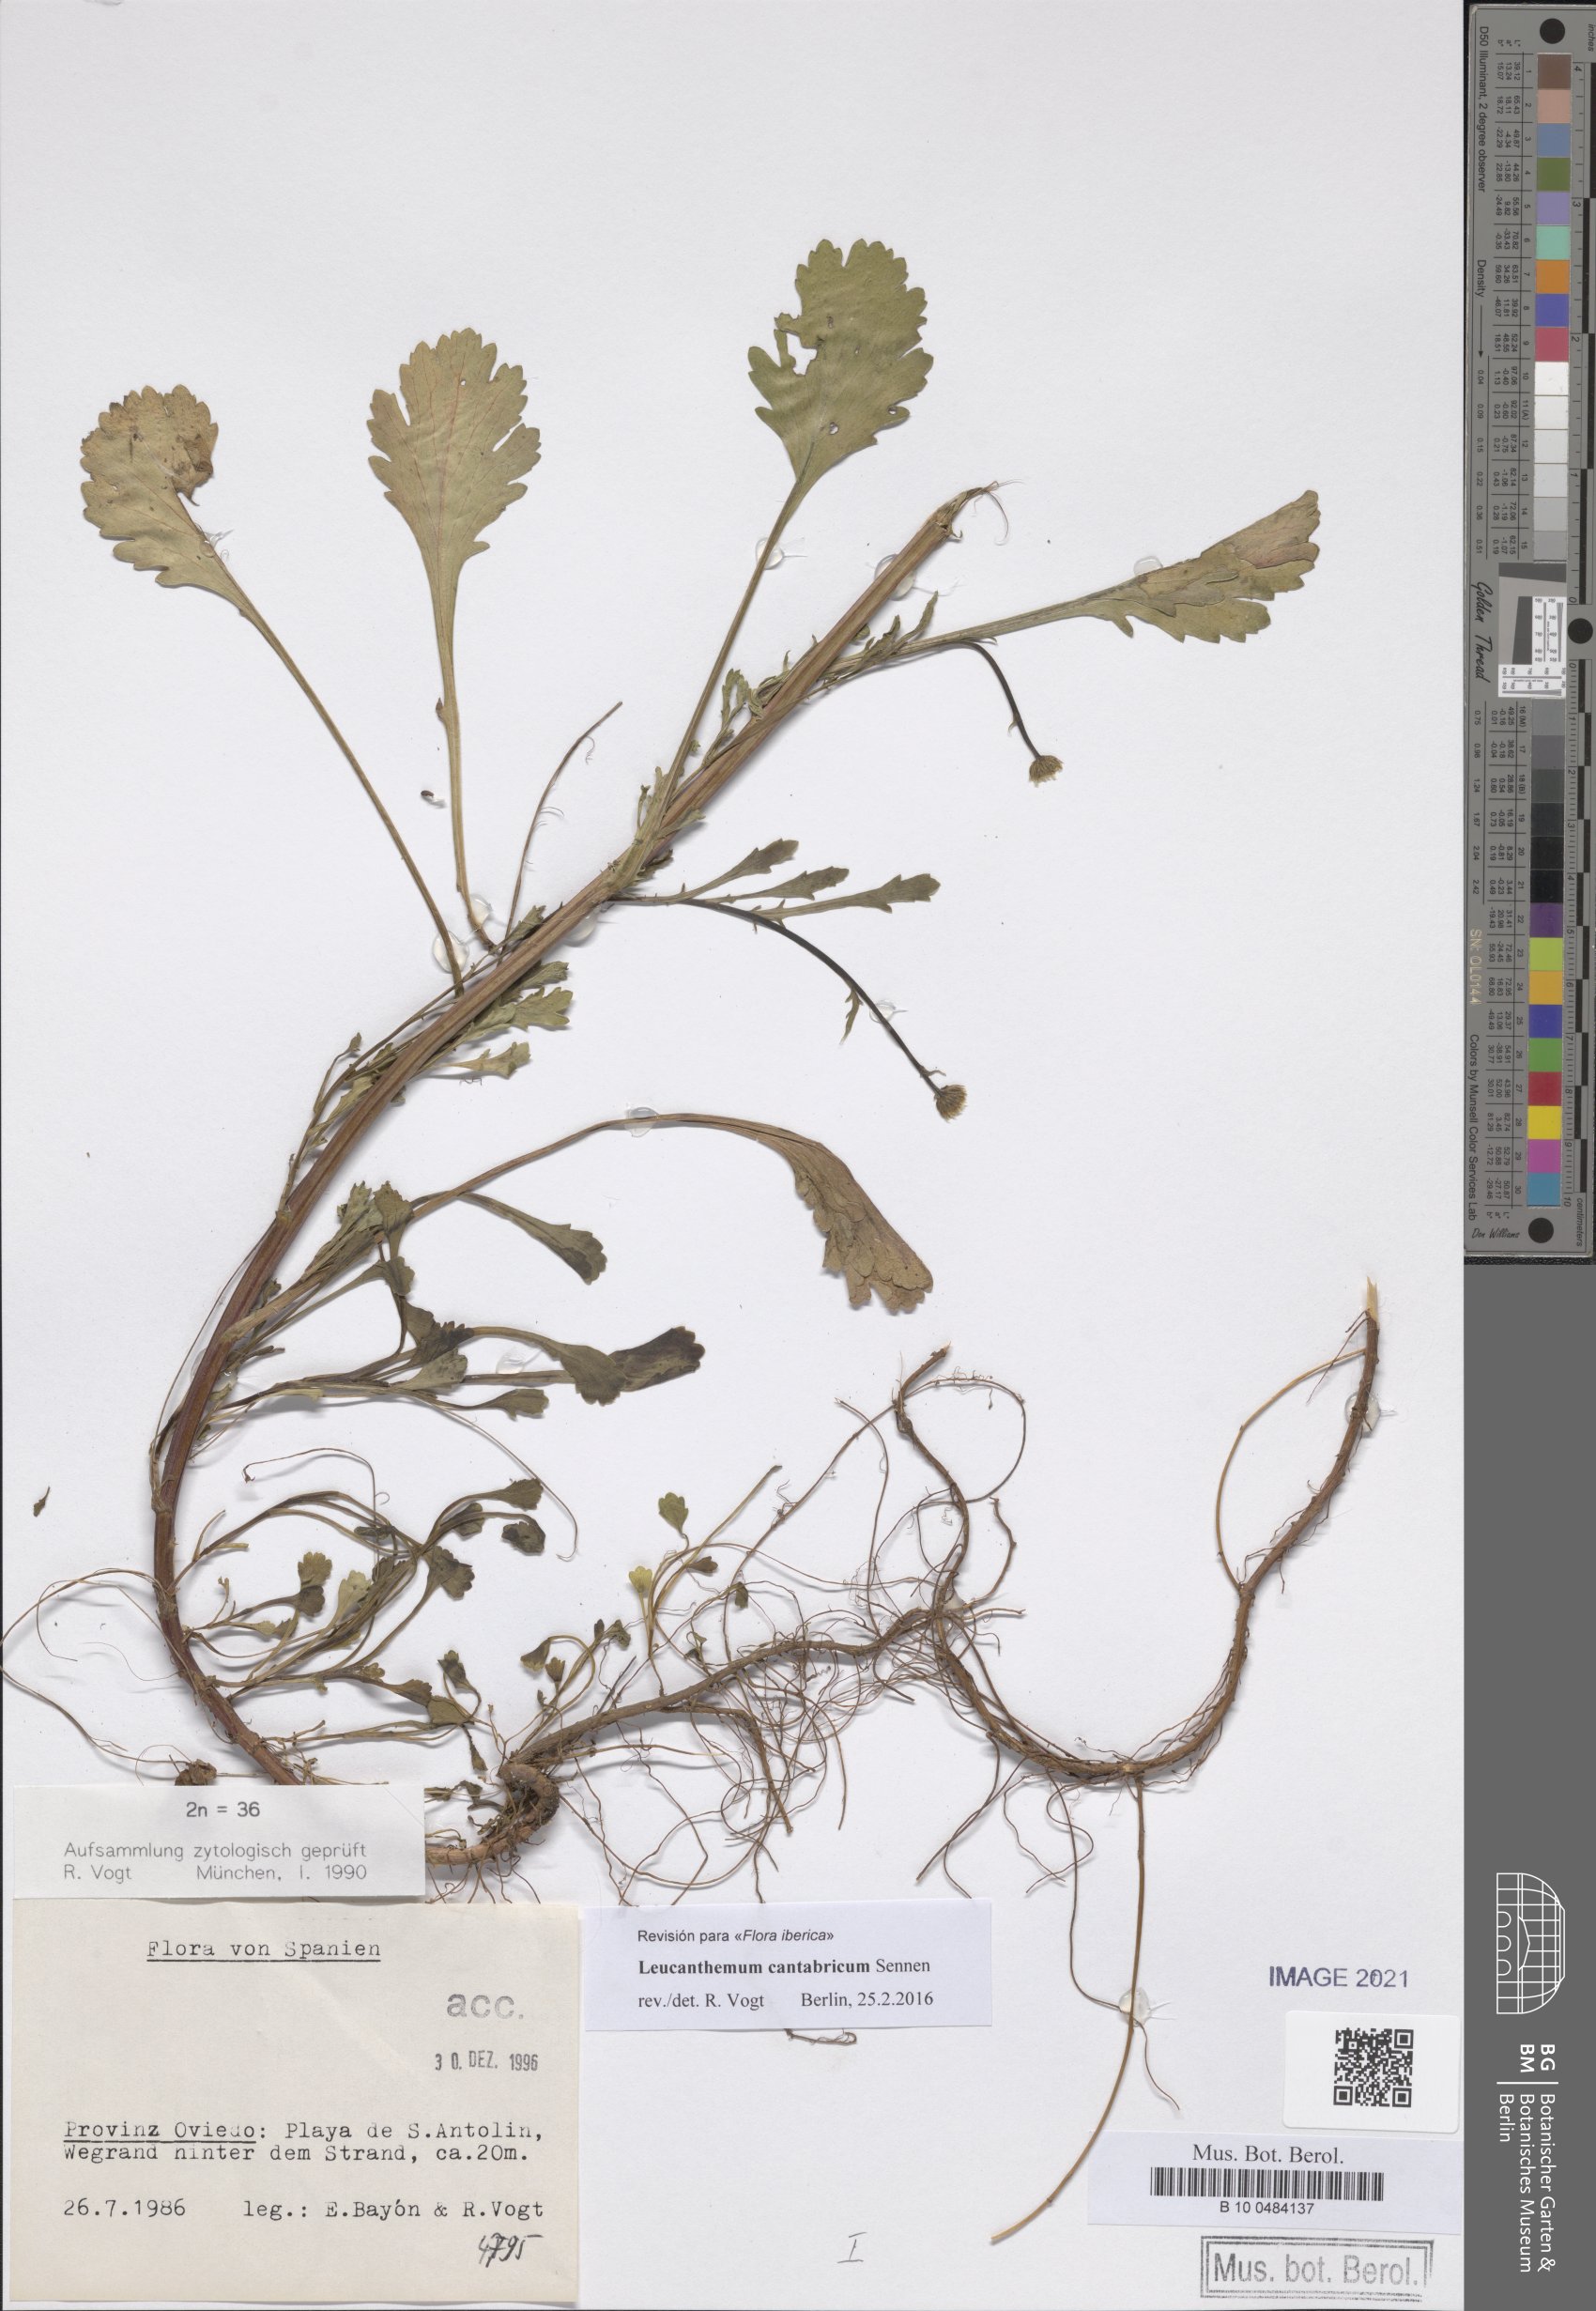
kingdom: Plantae
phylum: Tracheophyta
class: Magnoliopsida
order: Asterales
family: Asteraceae
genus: Leucanthemum
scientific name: Leucanthemum cantabricum
